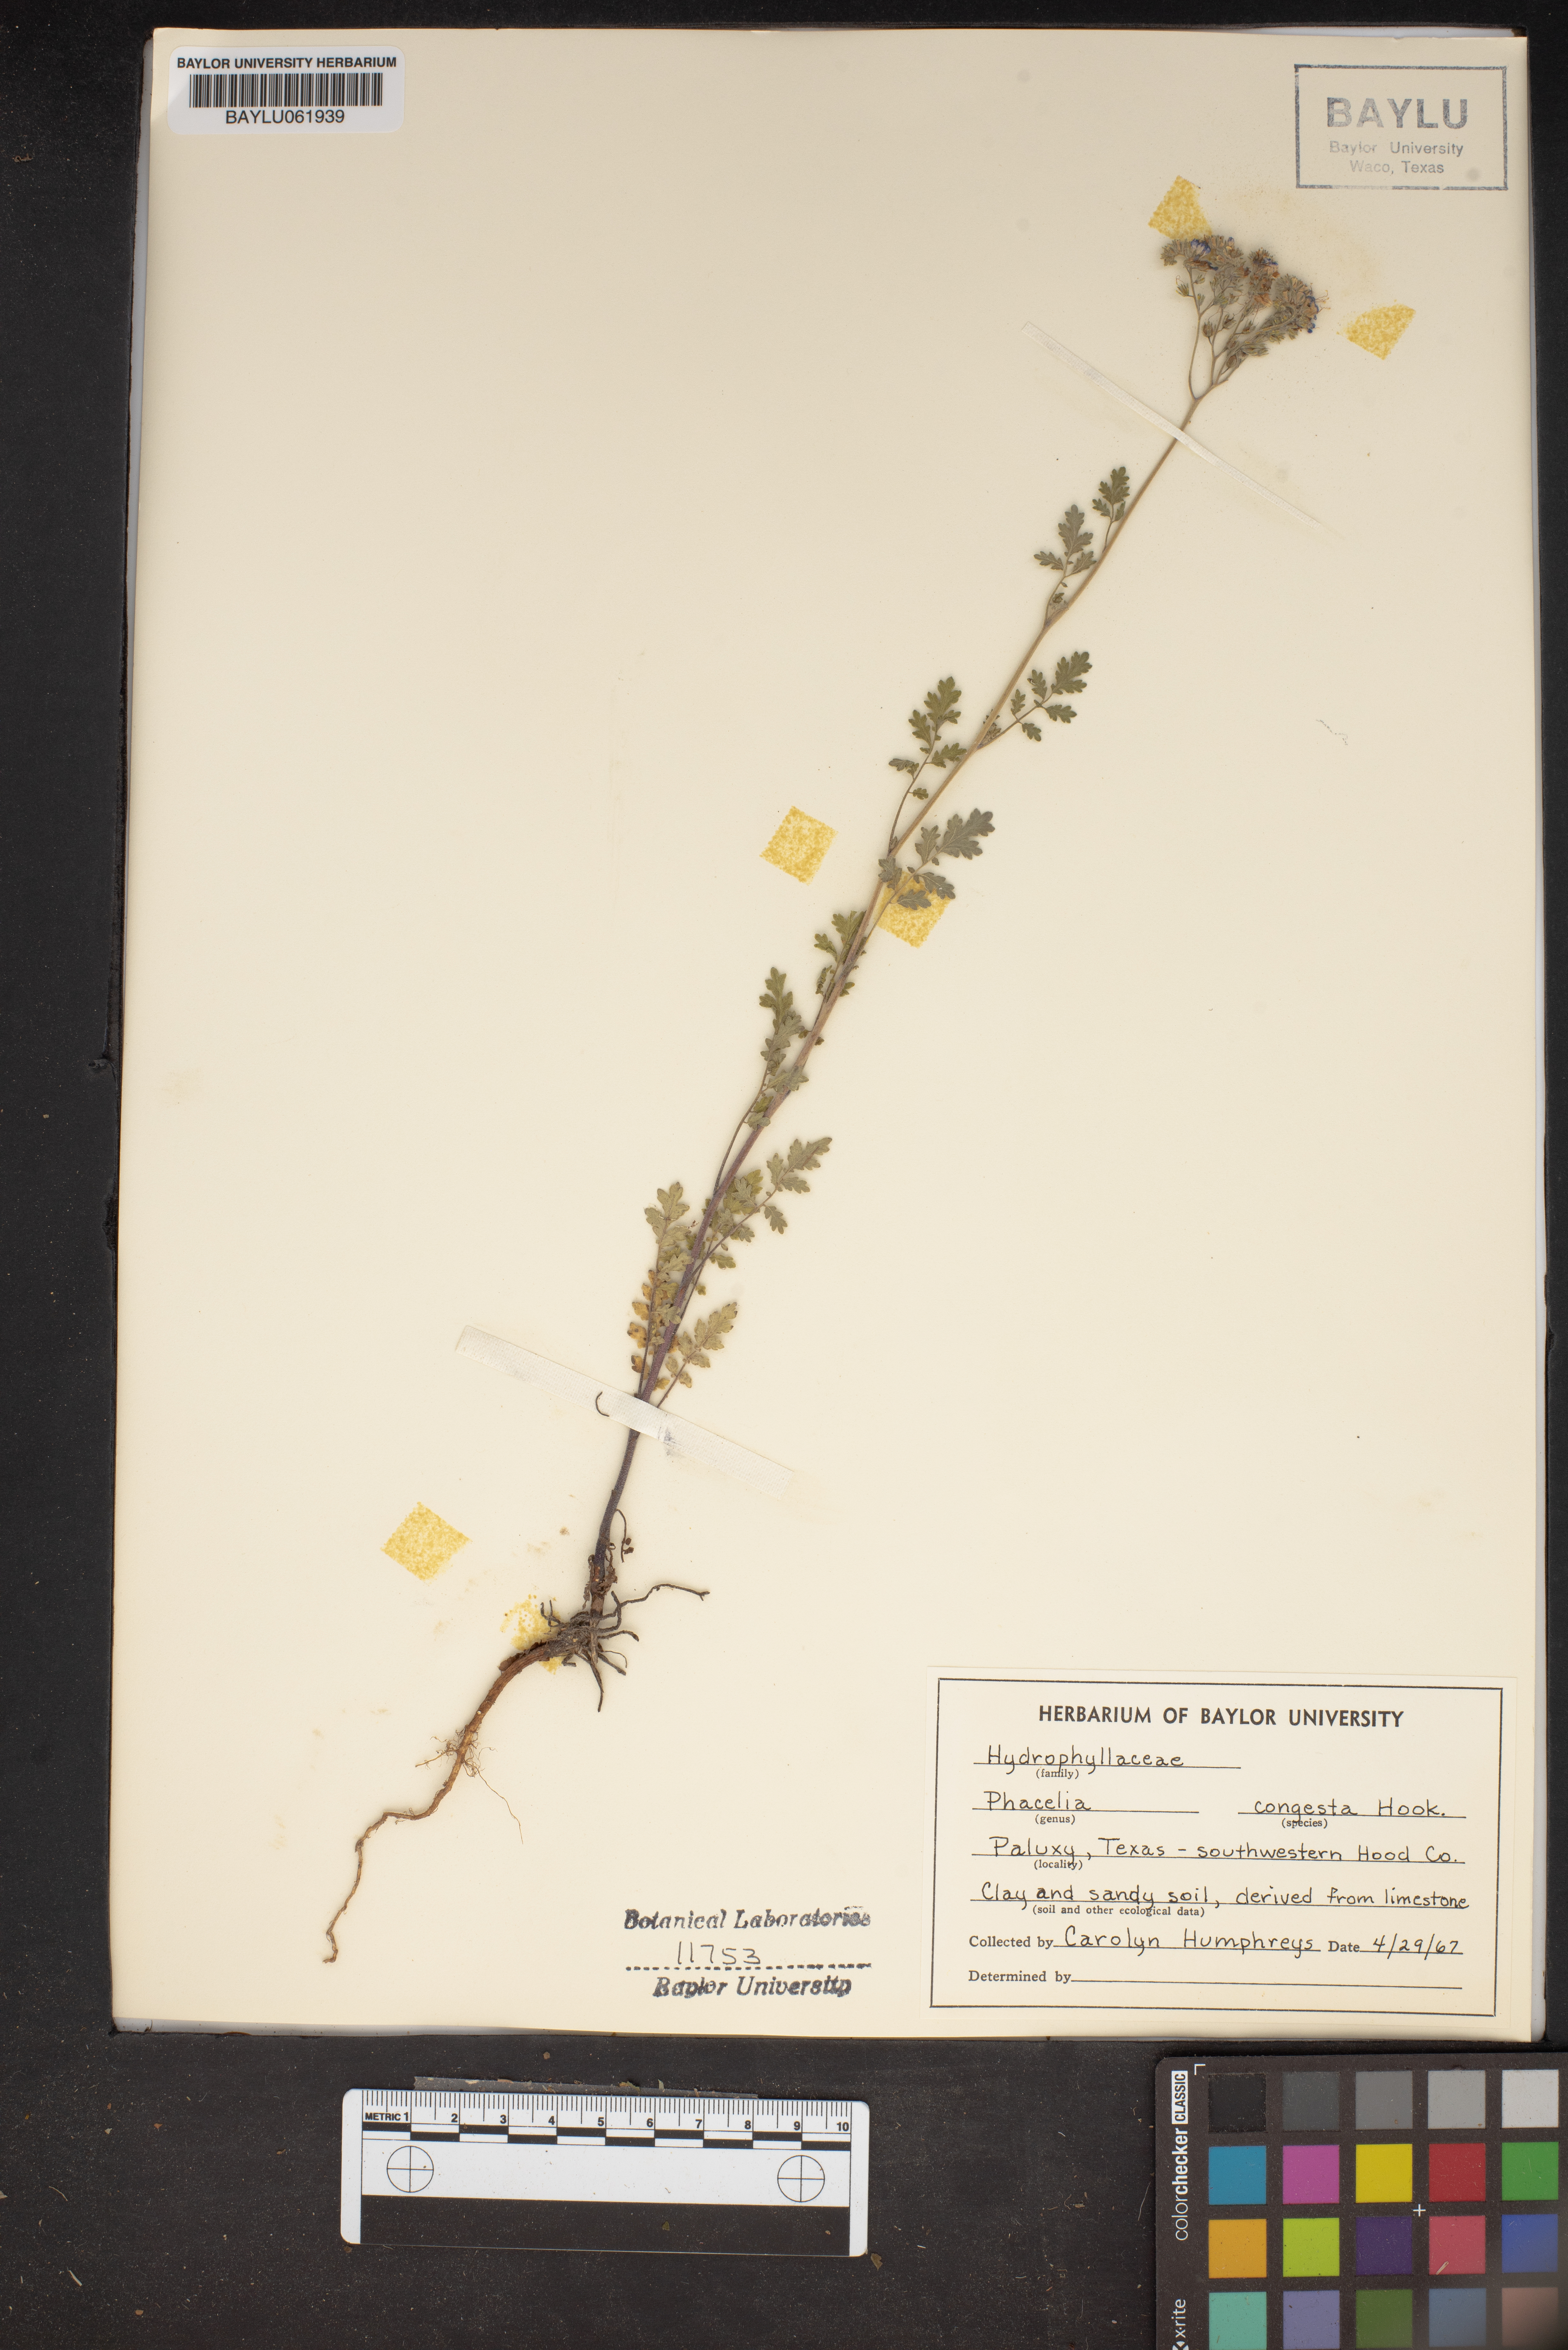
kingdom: Plantae
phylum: Tracheophyta
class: Magnoliopsida
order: Boraginales
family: Hydrophyllaceae
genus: Phacelia
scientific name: Phacelia congesta
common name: Blue curls
